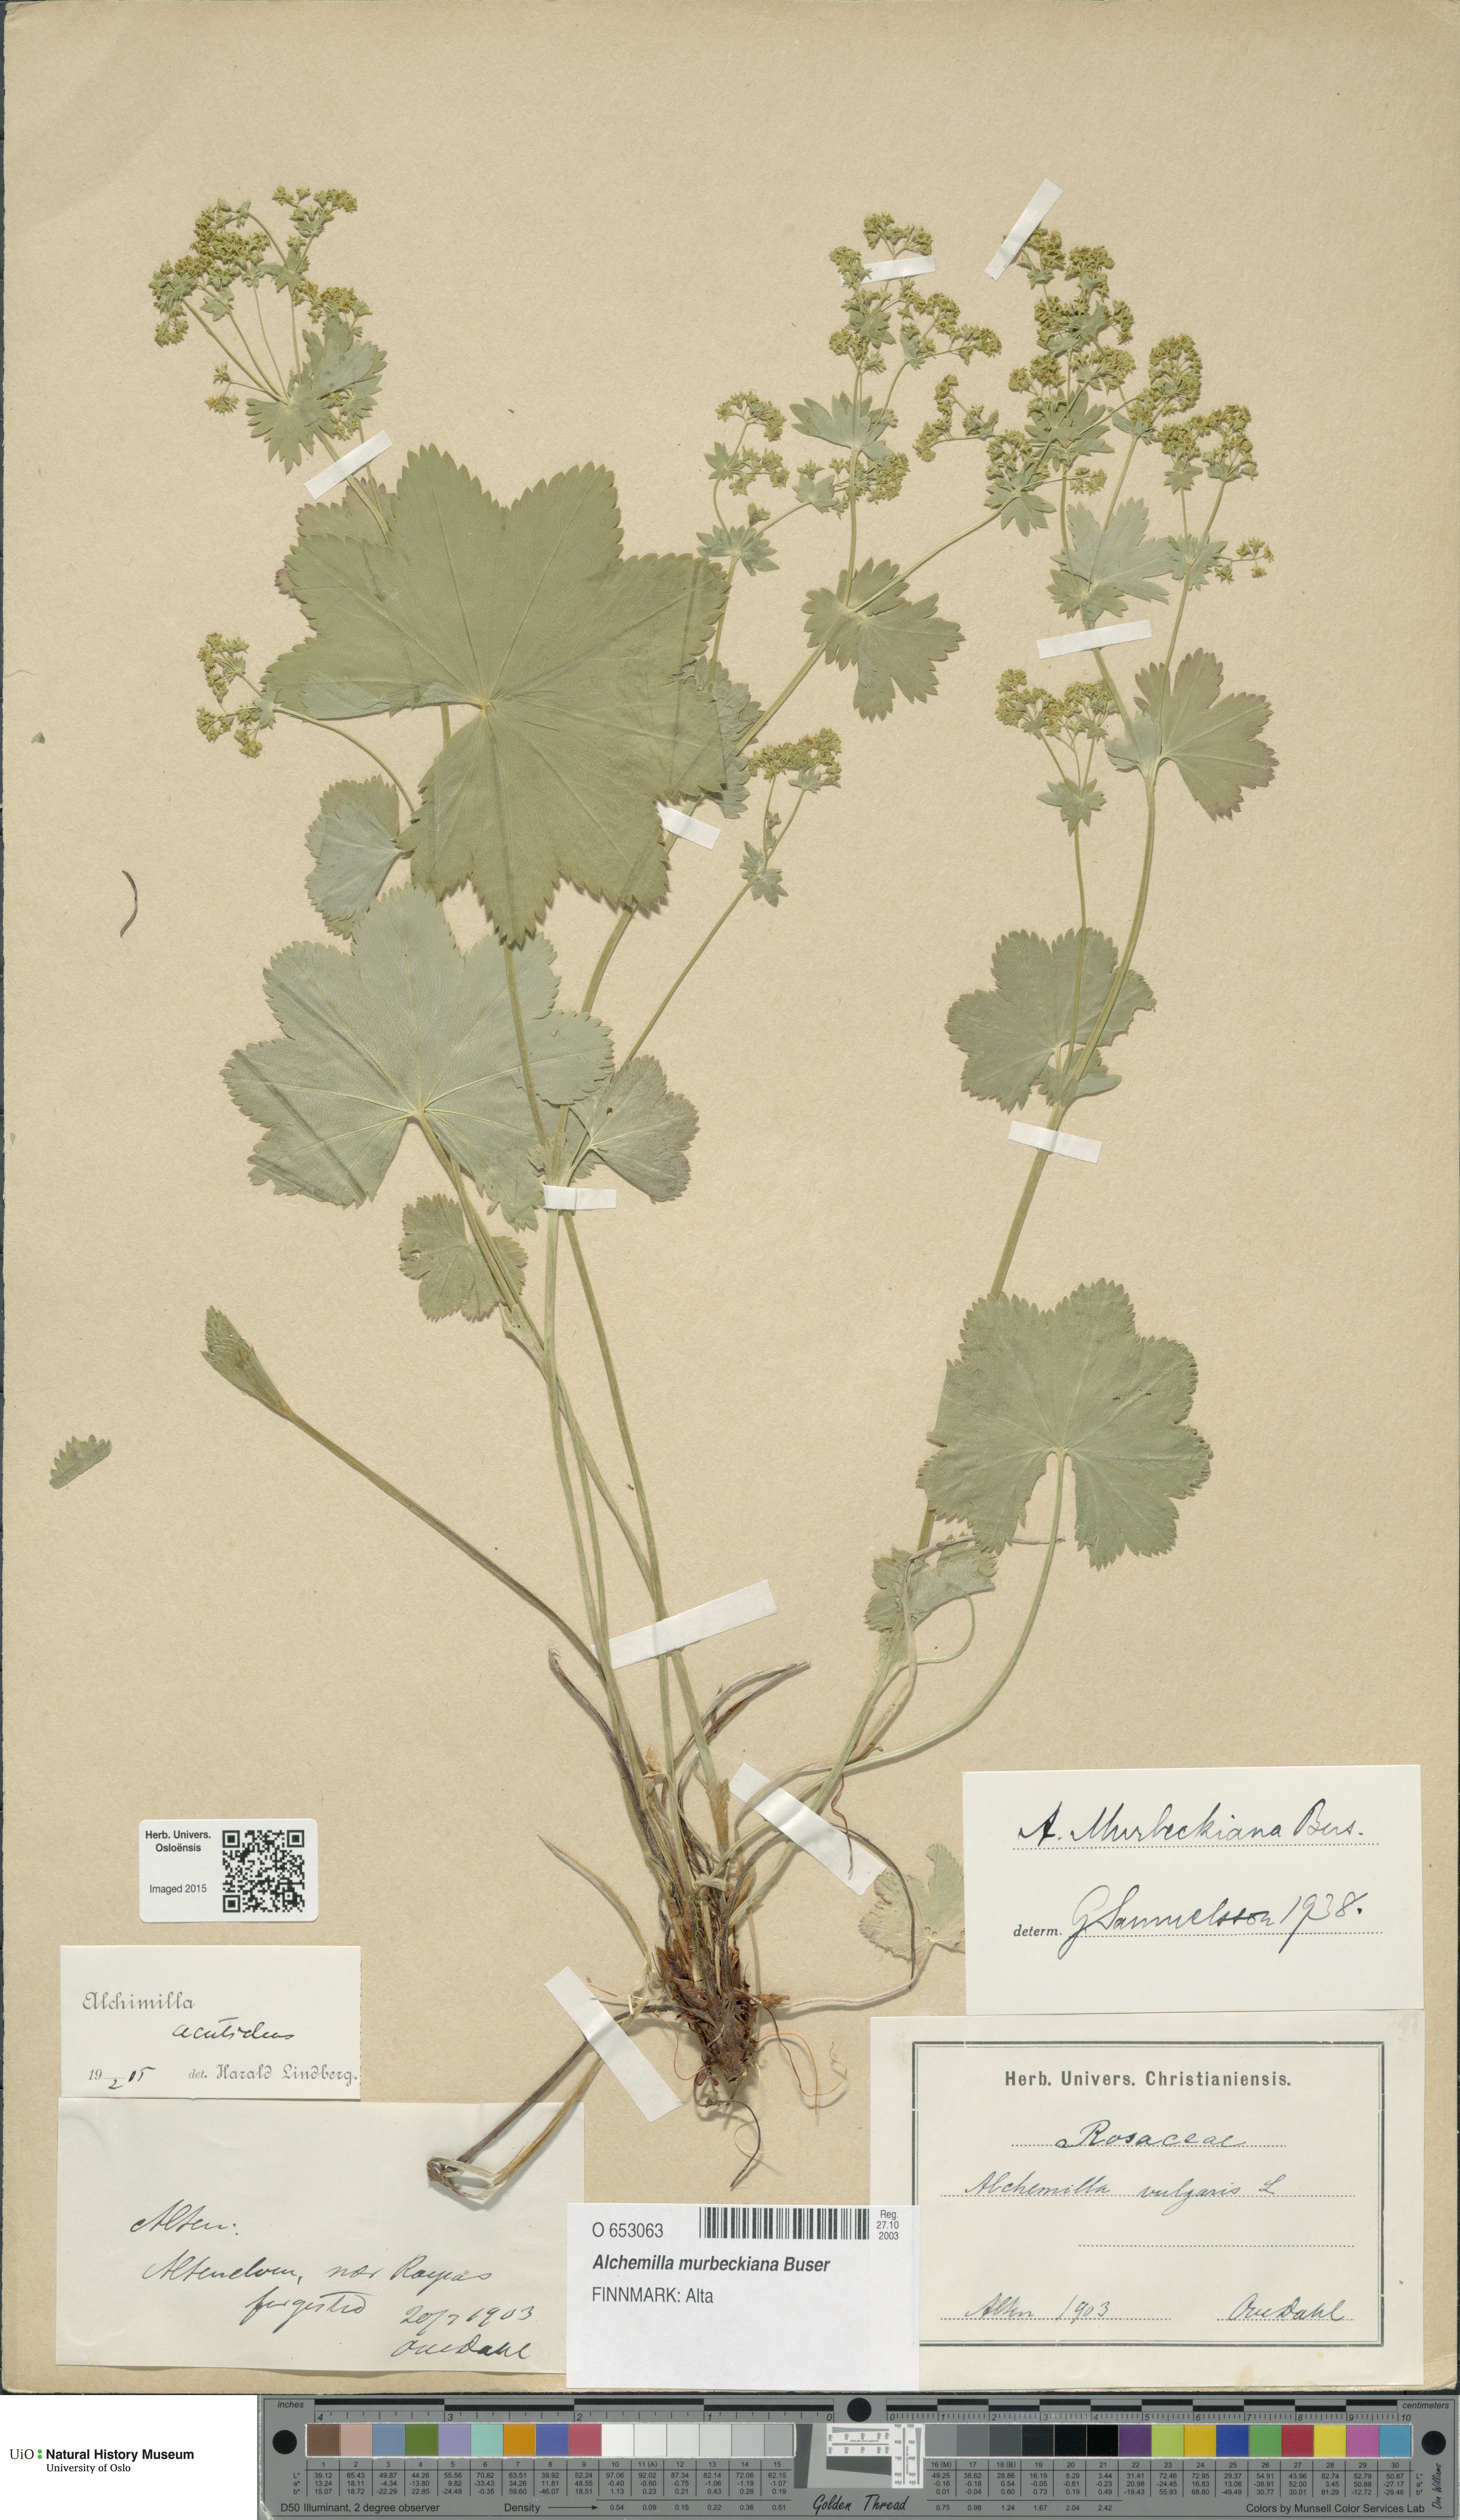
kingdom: Plantae
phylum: Tracheophyta
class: Magnoliopsida
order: Rosales
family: Rosaceae
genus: Alchemilla
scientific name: Alchemilla murbeckiana
